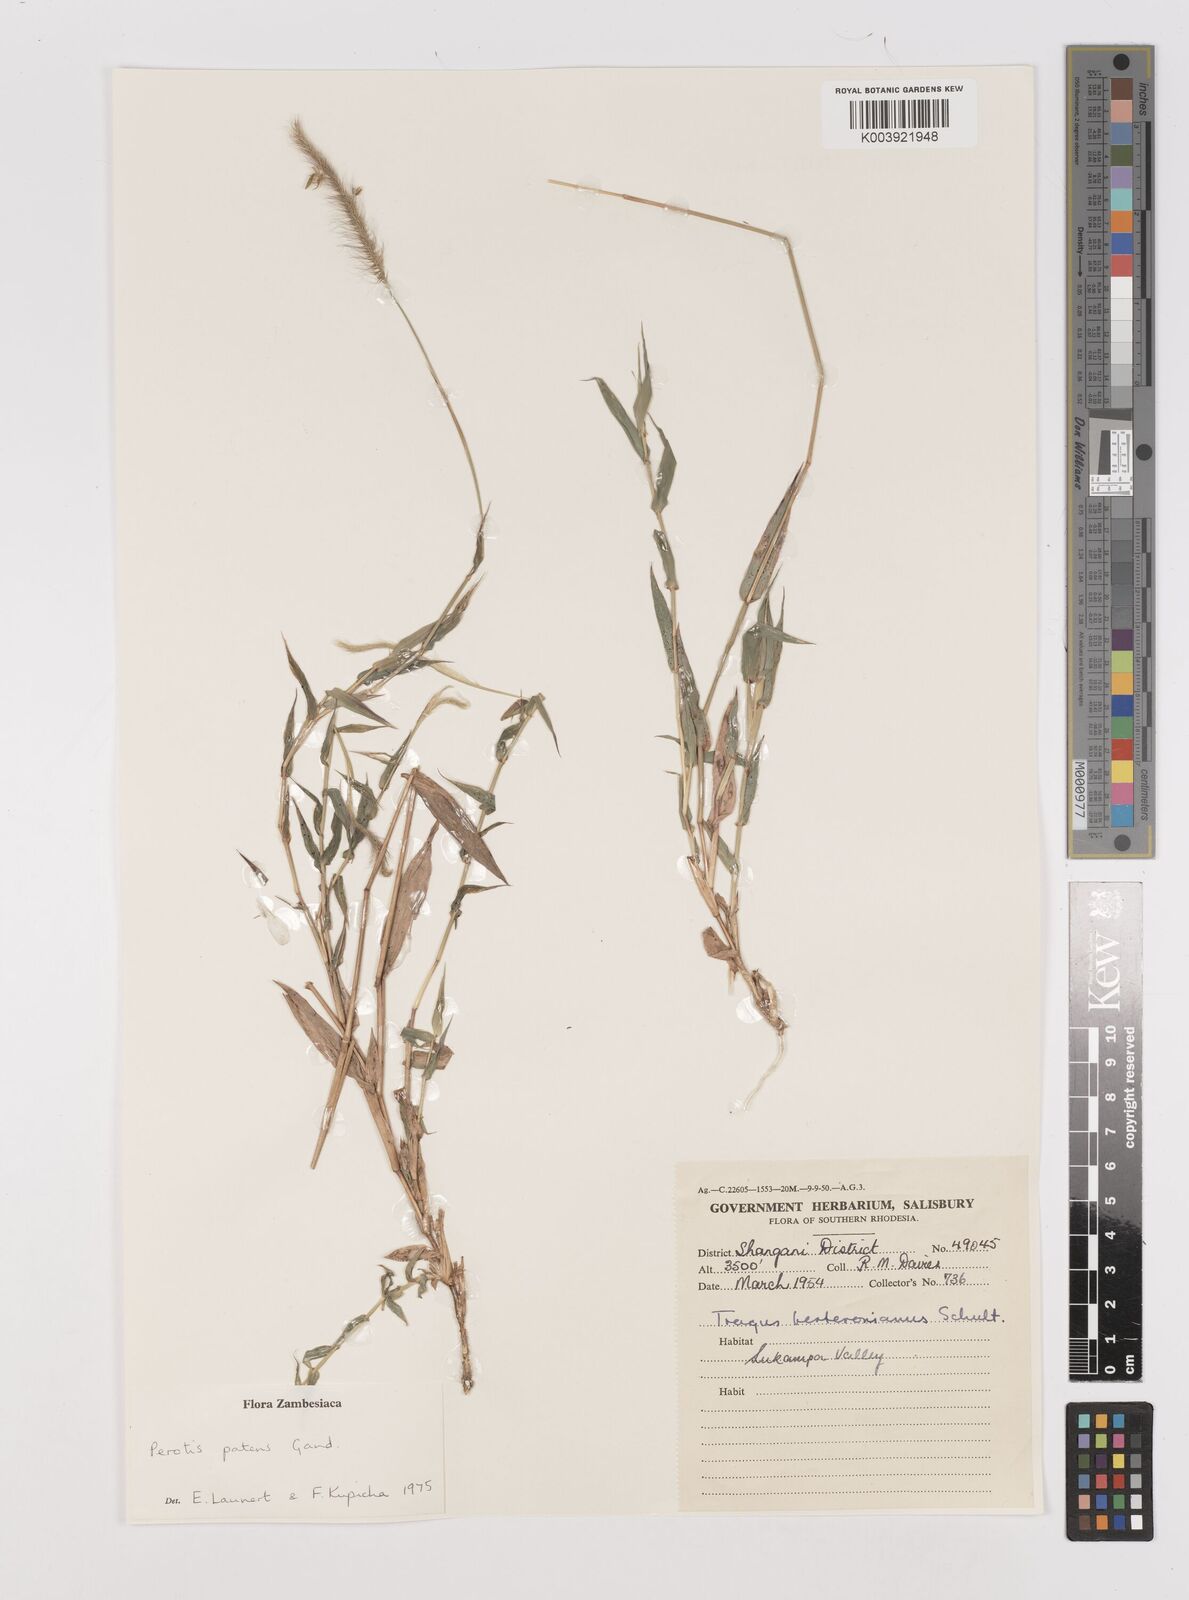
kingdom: Plantae
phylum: Tracheophyta
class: Liliopsida
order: Poales
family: Poaceae
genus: Perotis
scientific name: Perotis patens
